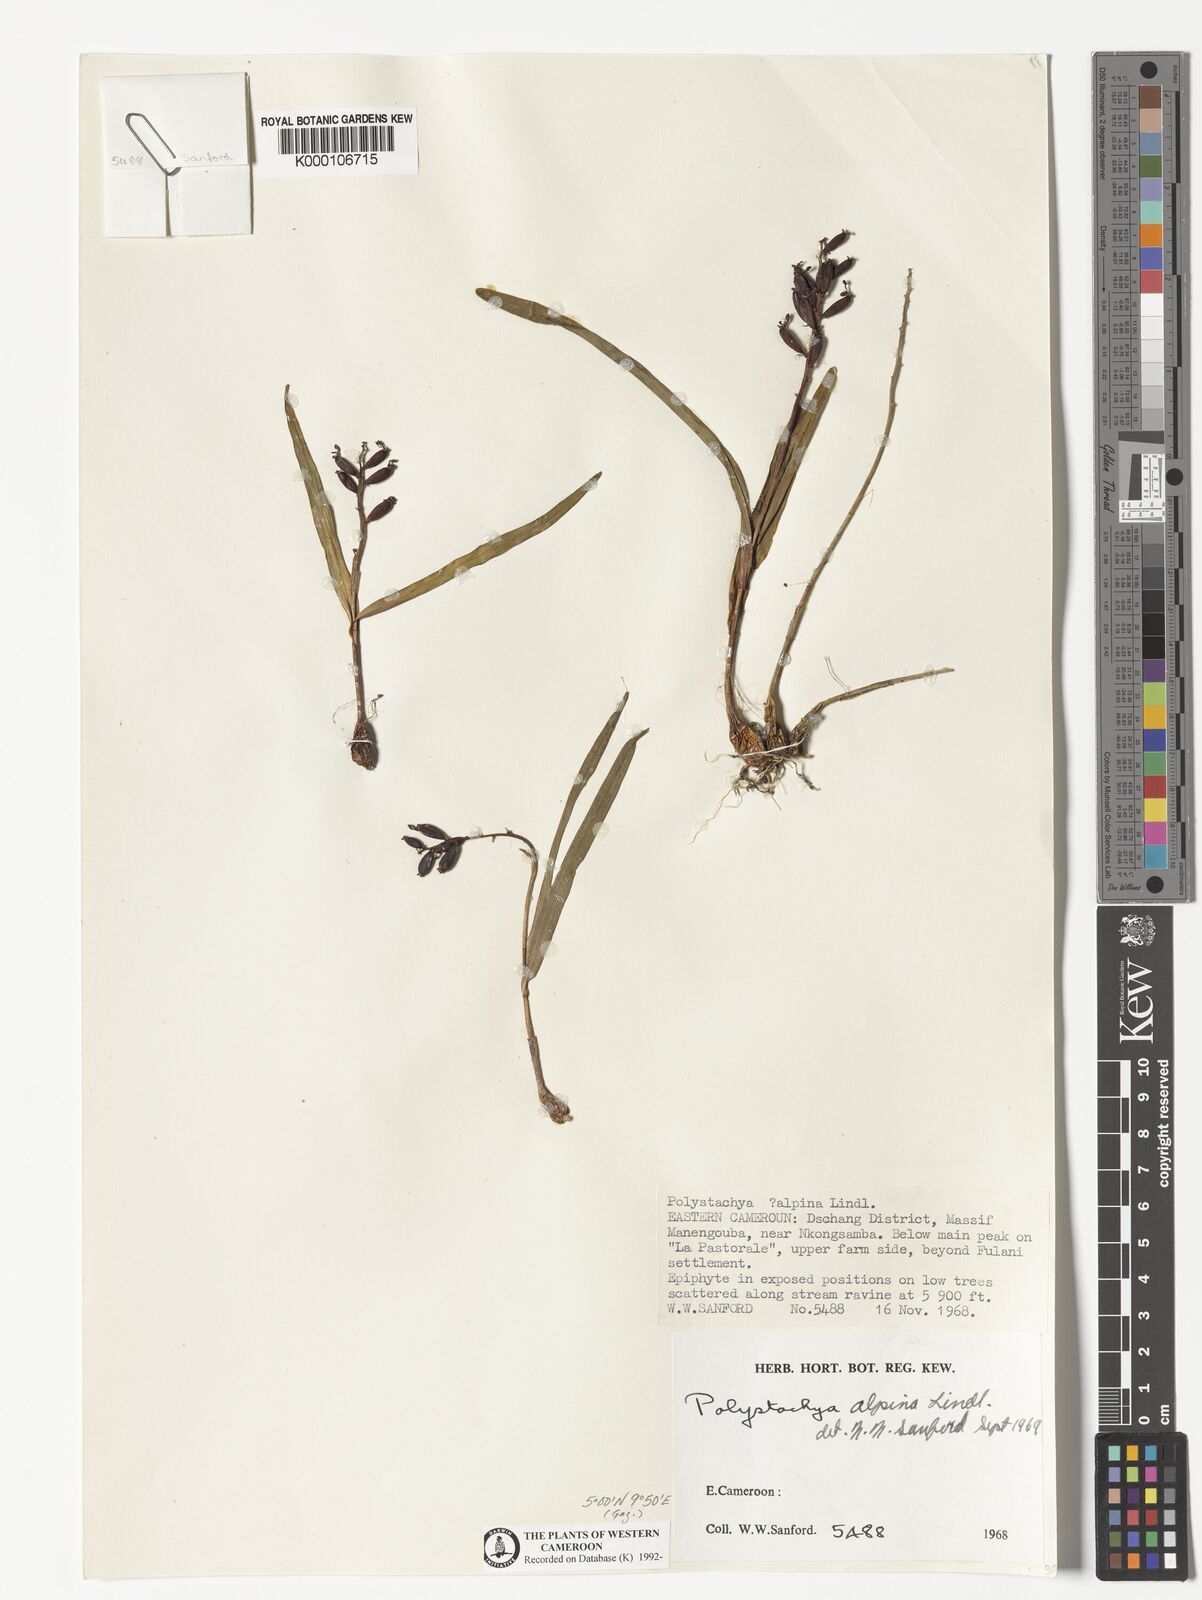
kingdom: Plantae
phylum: Tracheophyta
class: Liliopsida
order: Asparagales
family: Orchidaceae
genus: Polystachya
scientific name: Polystachya alpina
